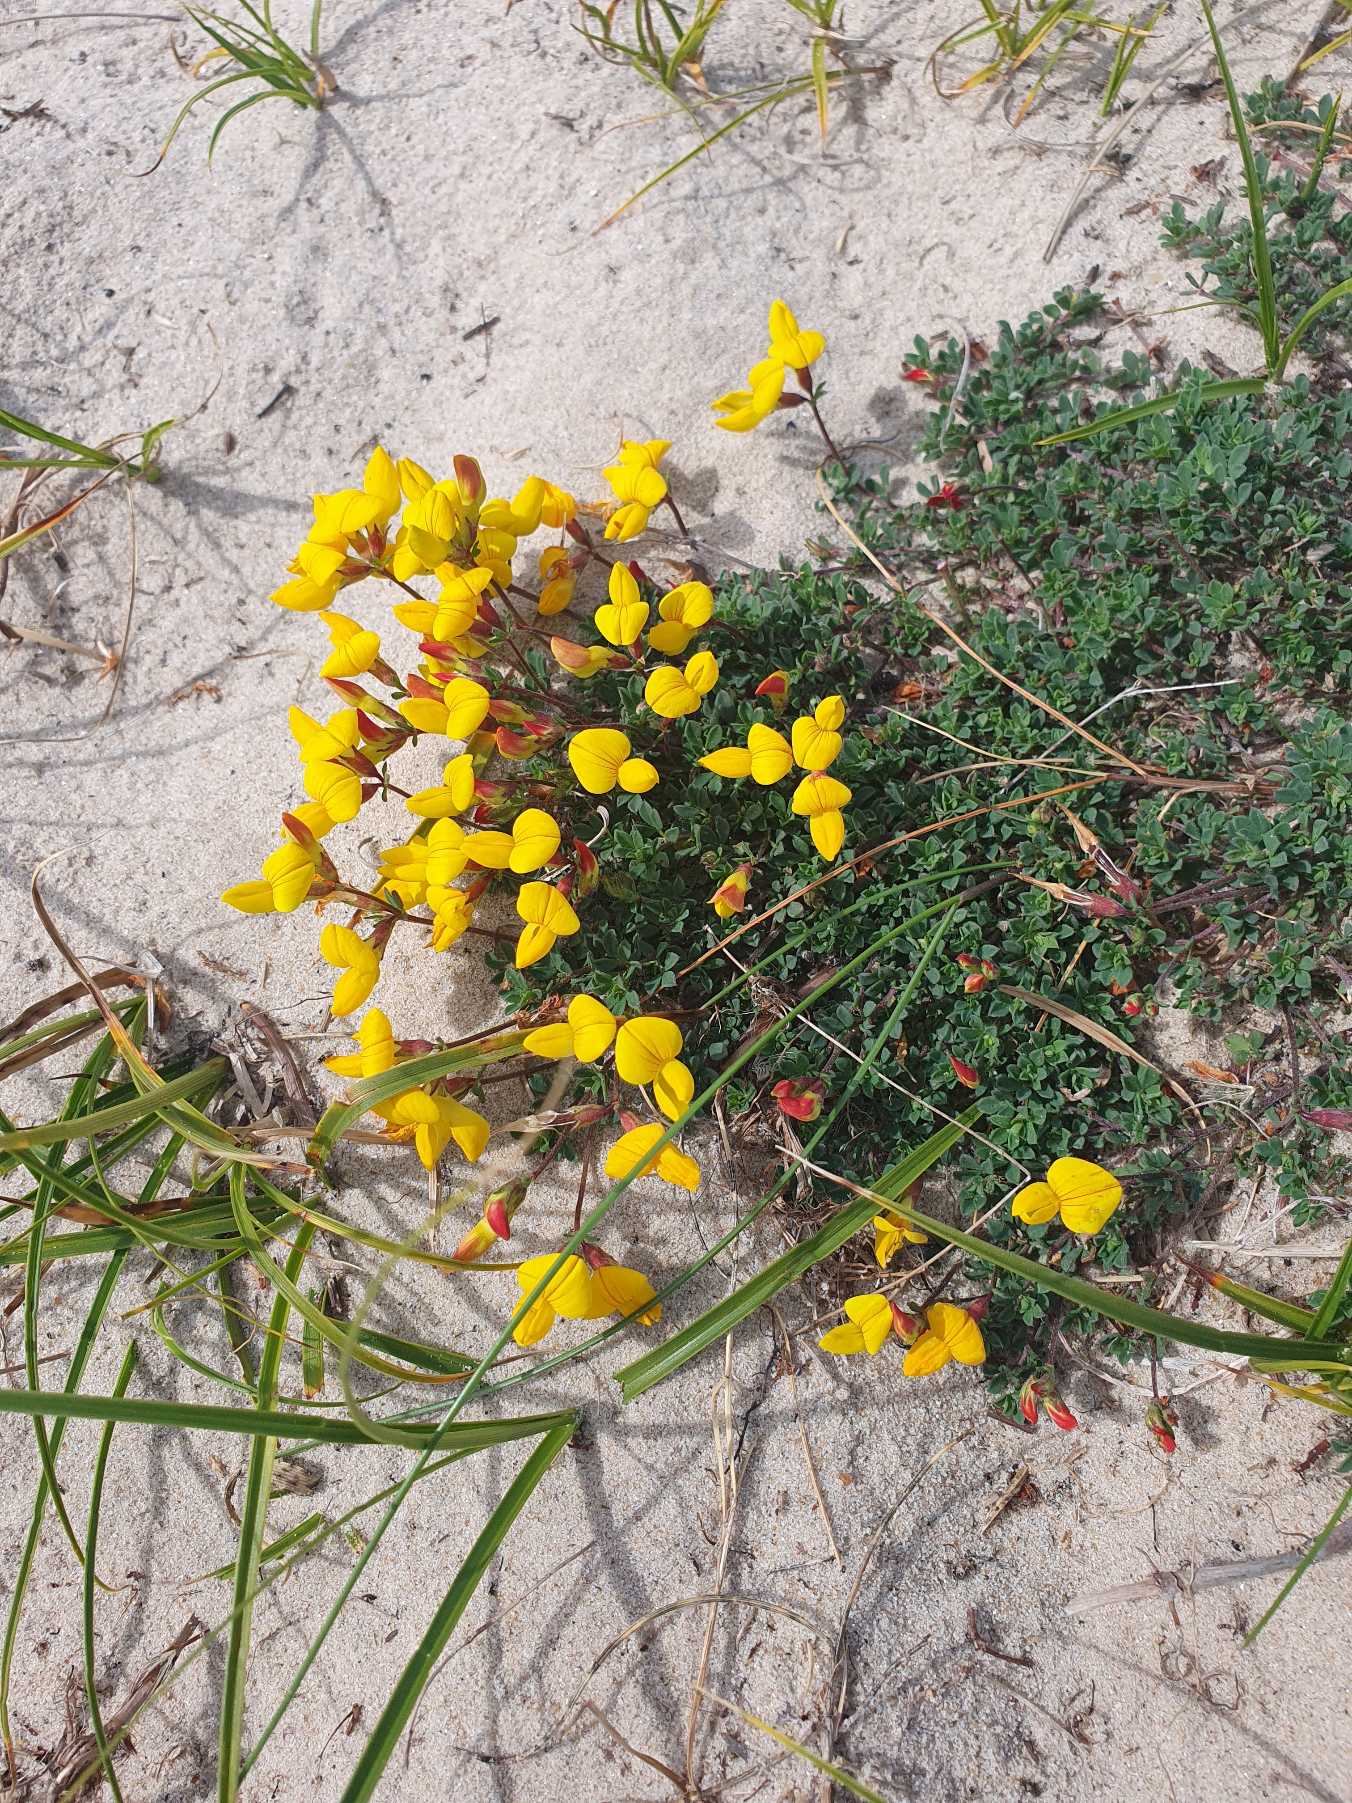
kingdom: Plantae
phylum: Tracheophyta
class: Magnoliopsida
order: Fabales
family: Fabaceae
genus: Lotus
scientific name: Lotus corniculatus
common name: Almindelig kællingetand
